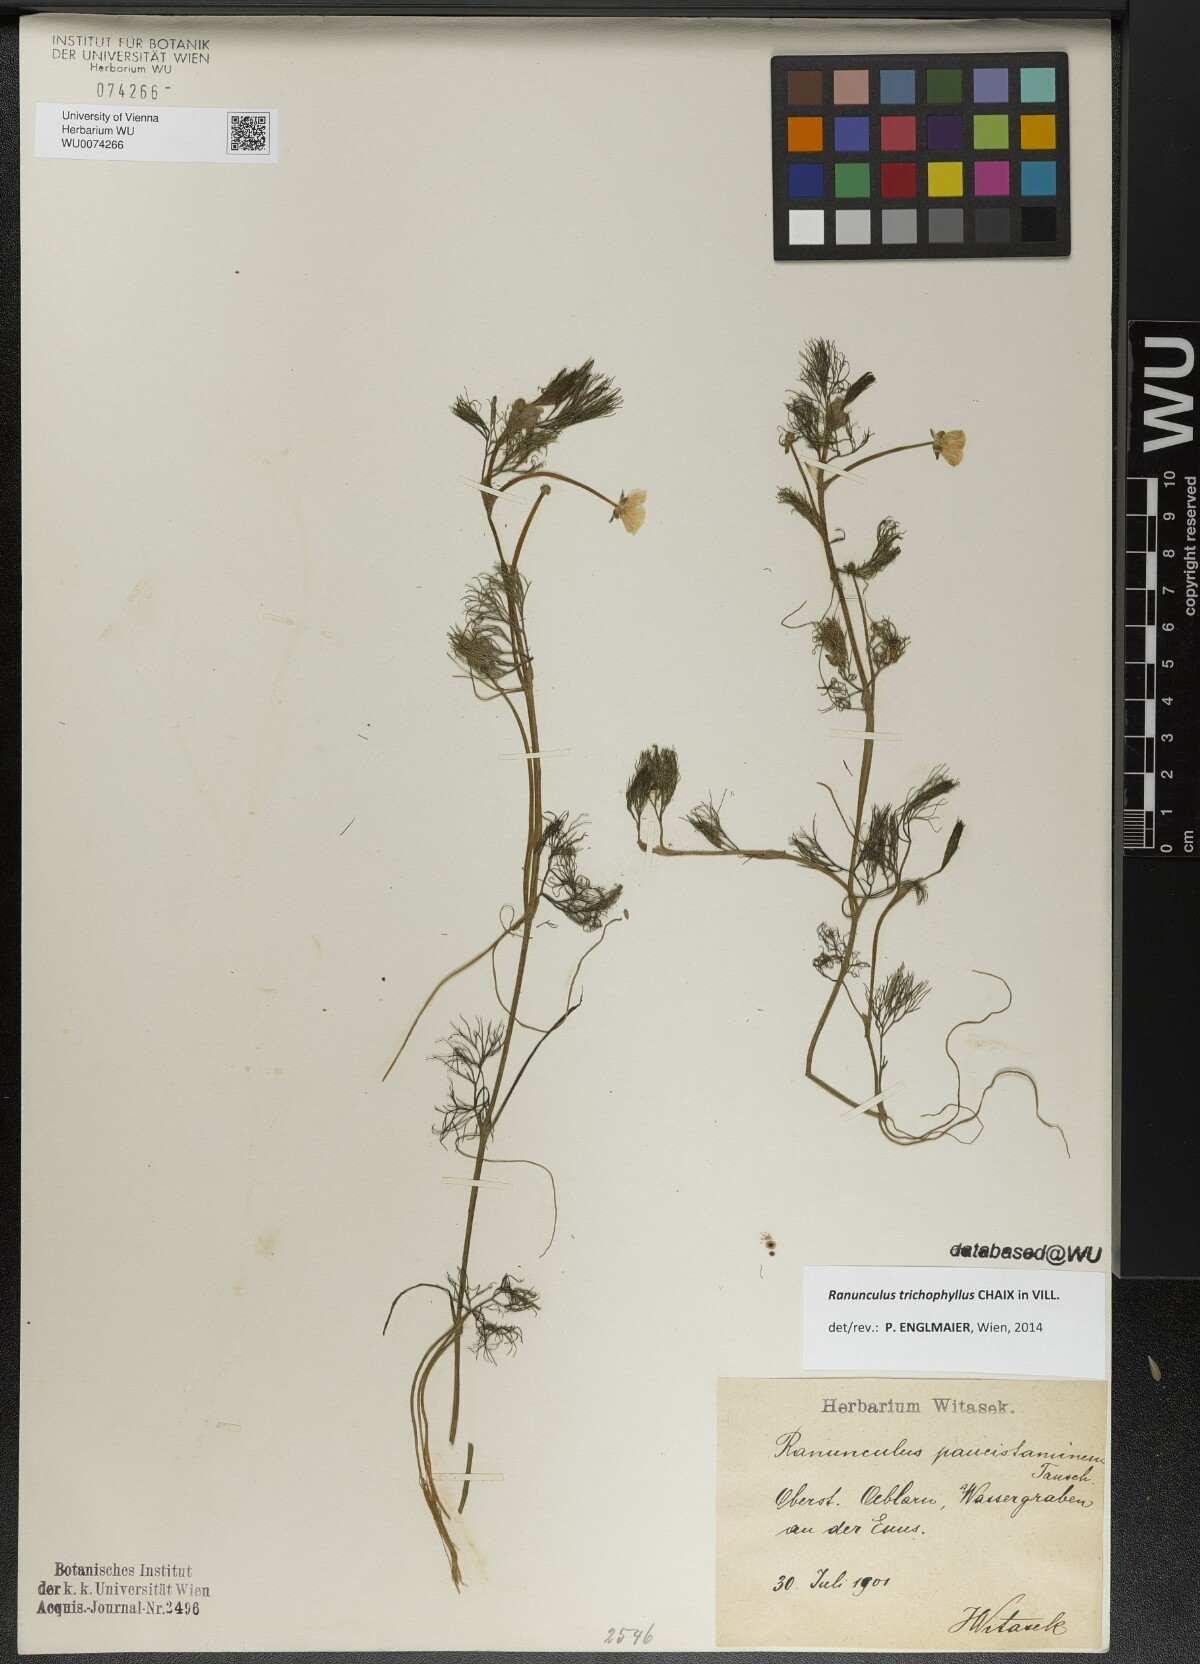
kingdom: Plantae
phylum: Tracheophyta
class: Magnoliopsida
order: Ranunculales
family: Ranunculaceae
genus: Ranunculus
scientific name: Ranunculus trichophyllus
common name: Thread-leaved water-crowfoot
